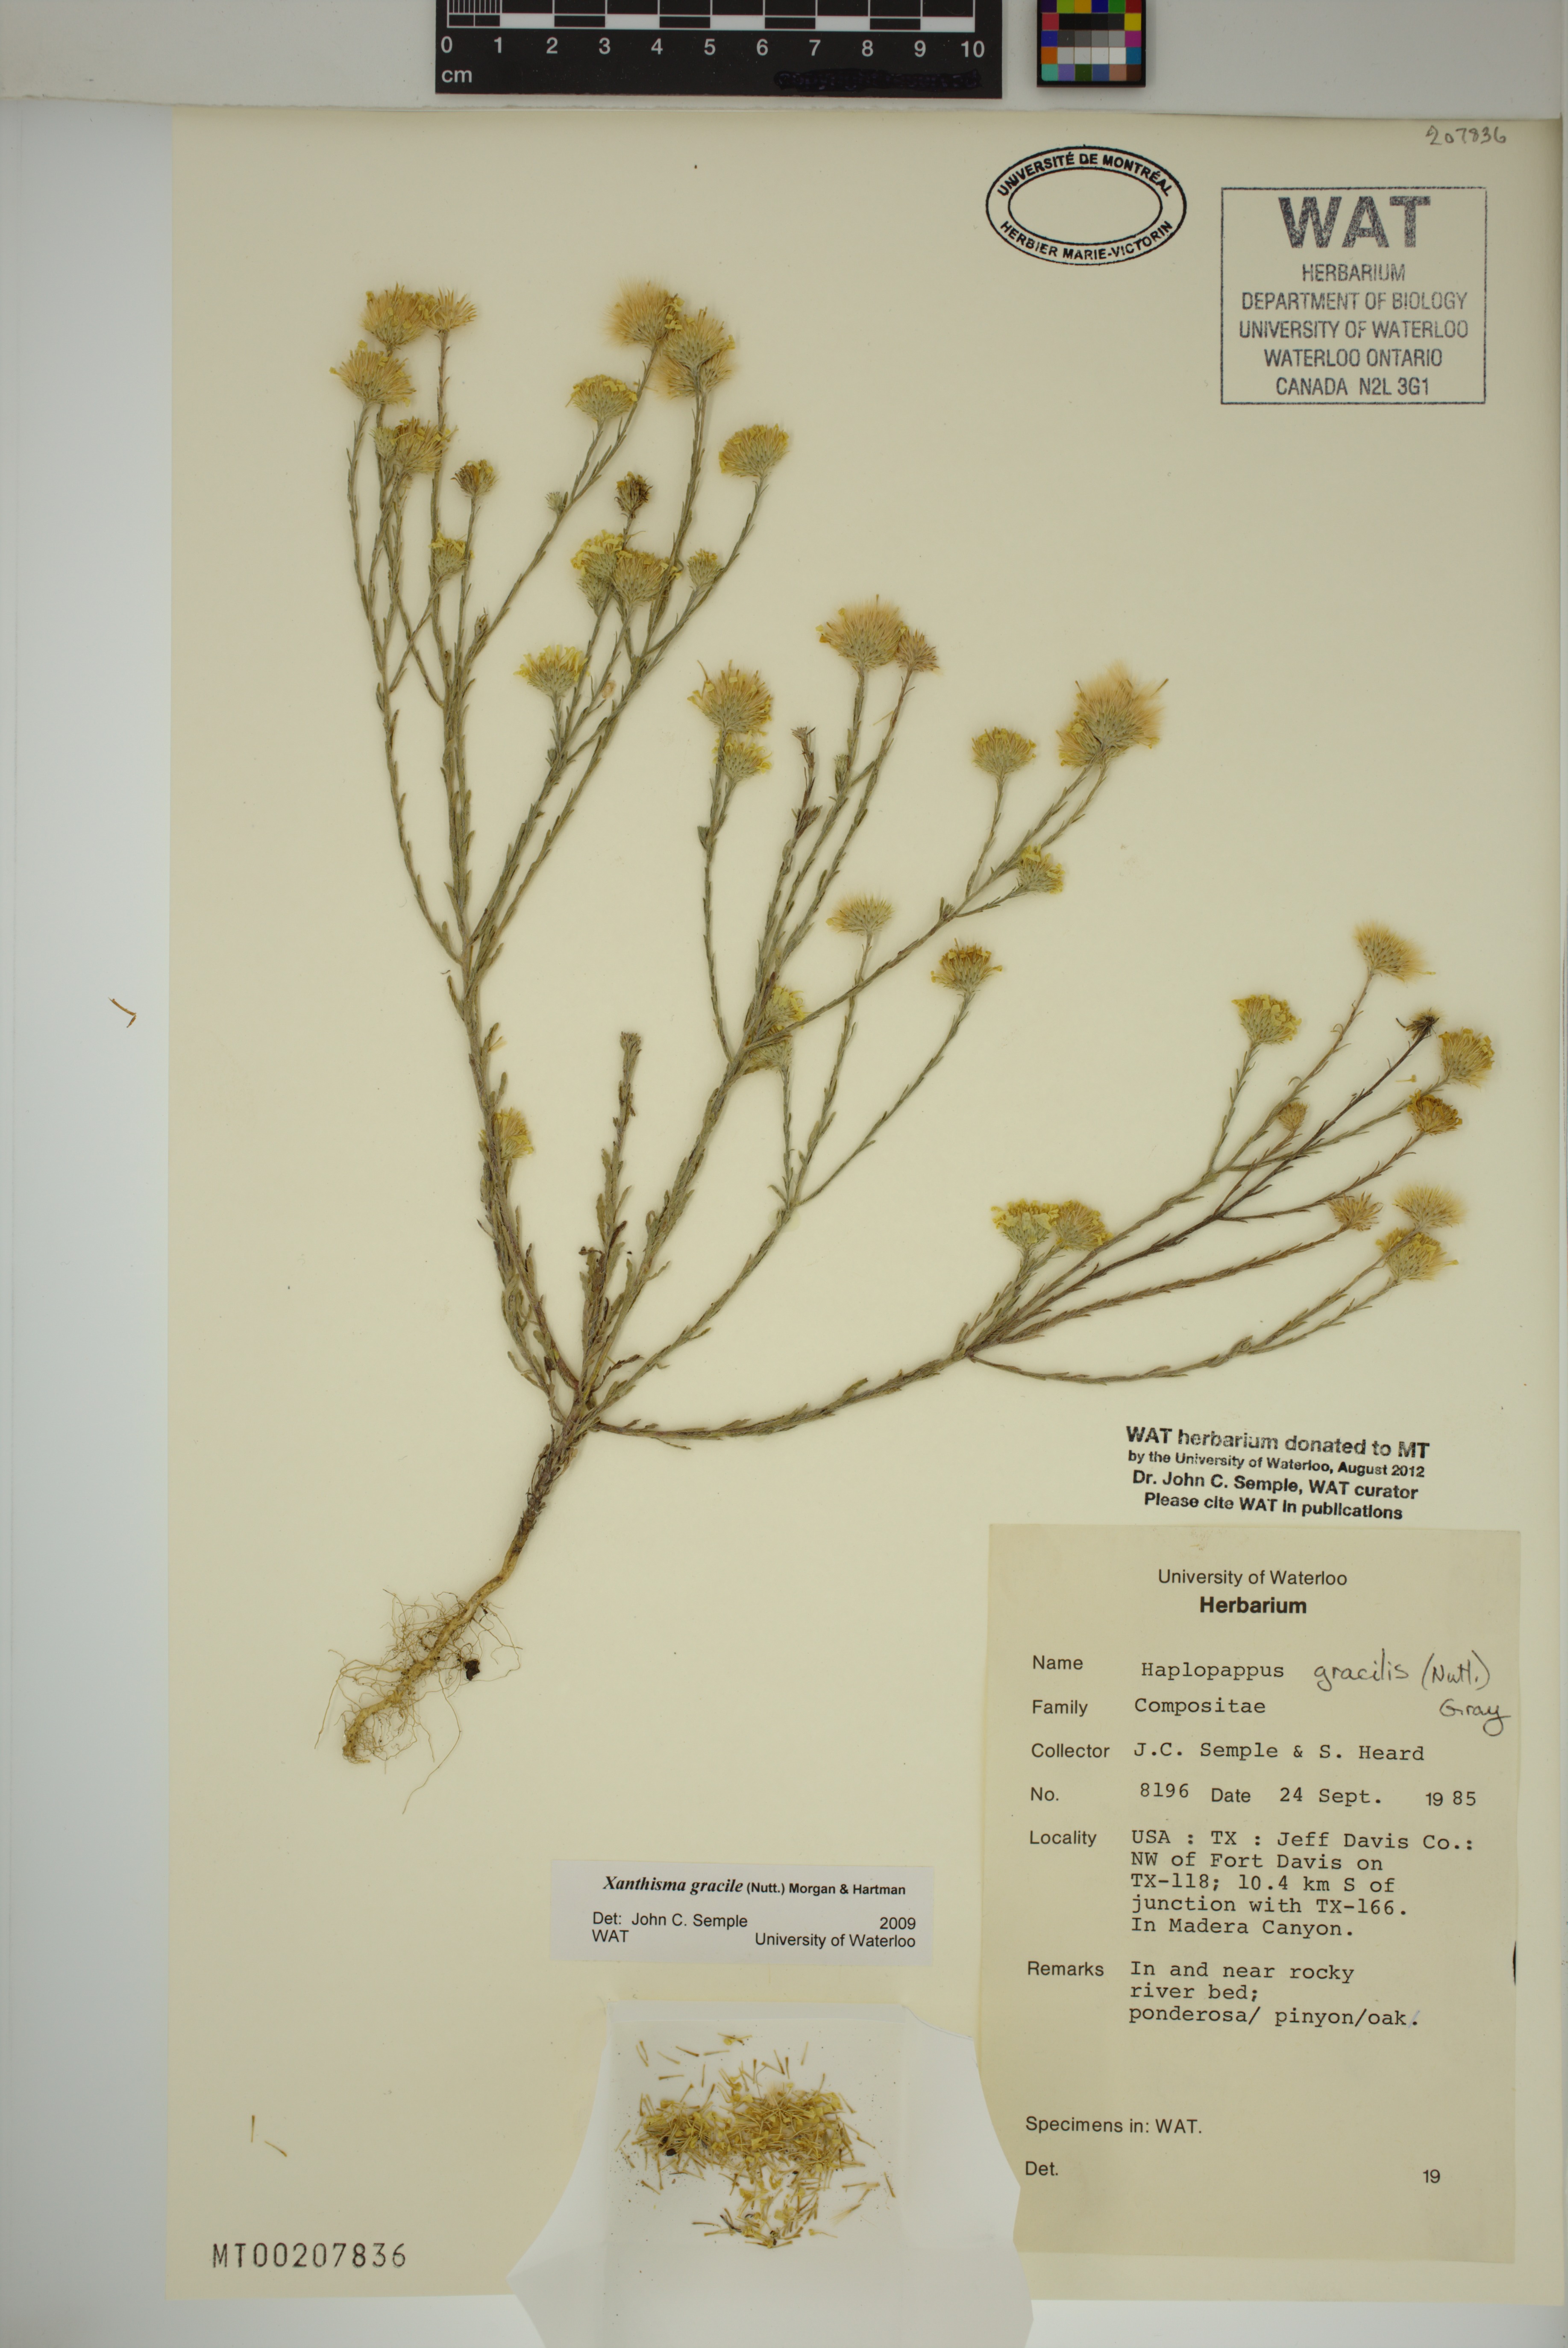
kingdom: Plantae
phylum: Tracheophyta
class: Magnoliopsida
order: Asterales
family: Asteraceae
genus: Xanthisma
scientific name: Xanthisma gracile
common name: Slender goldenweed
